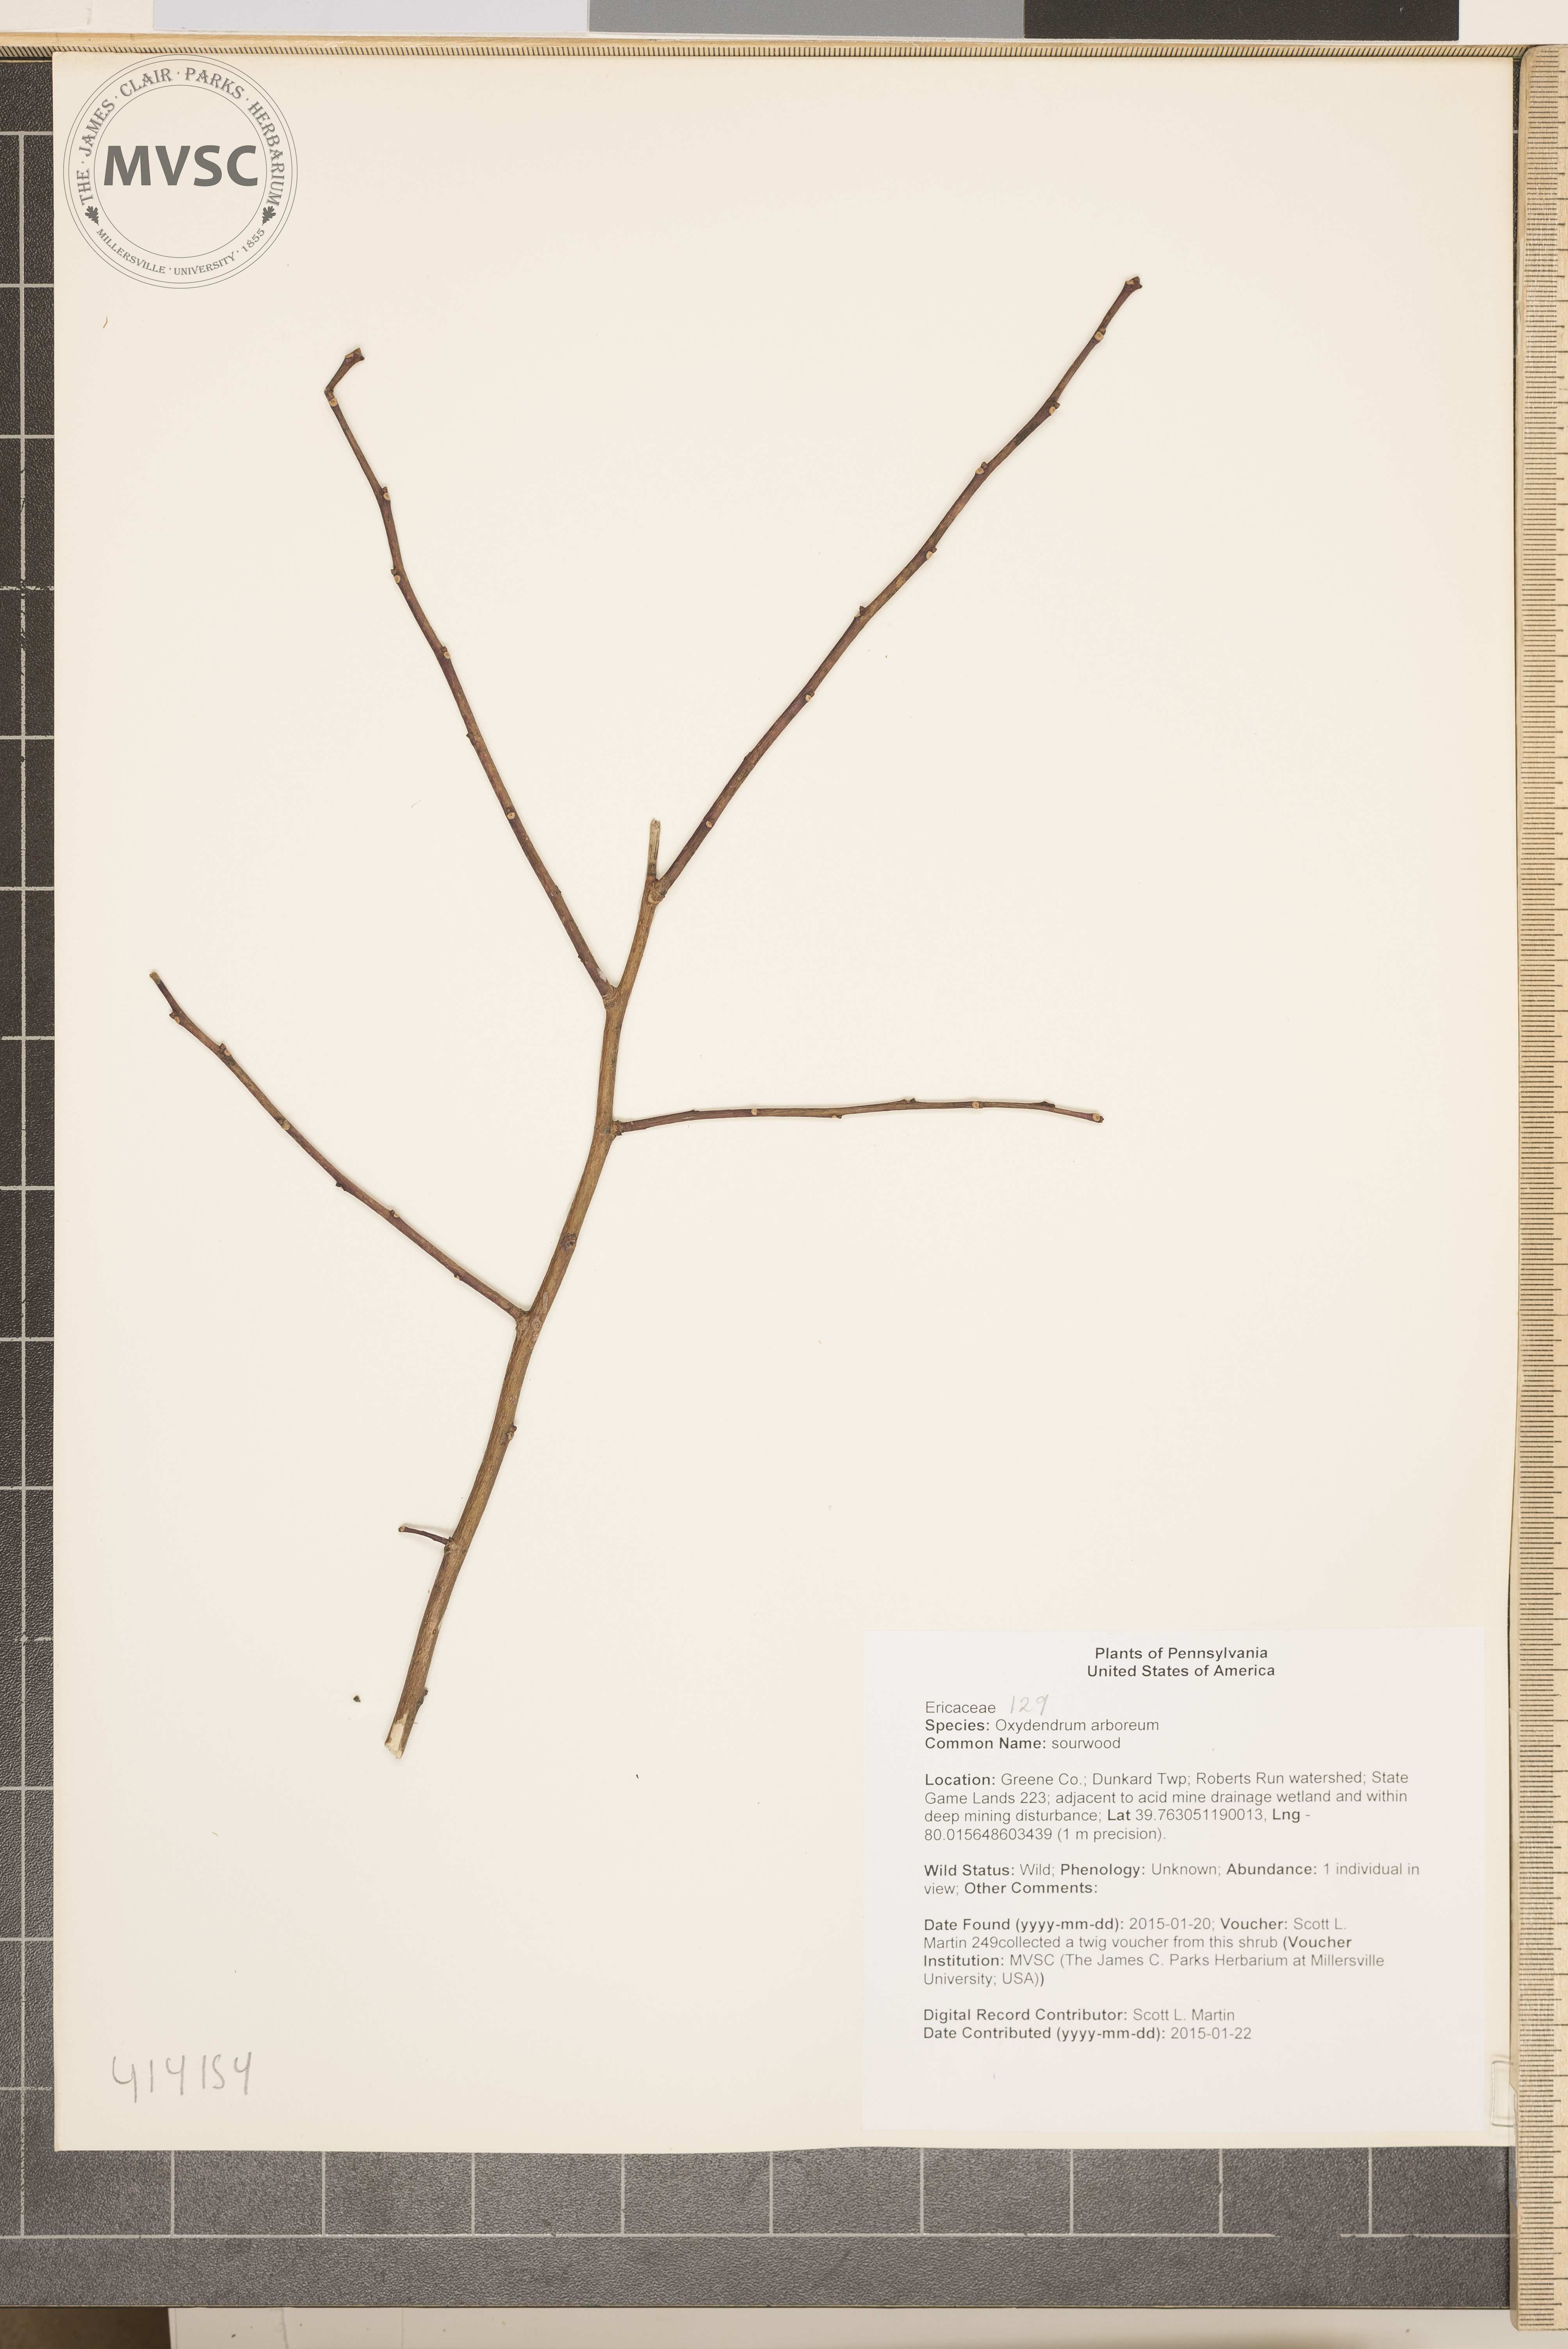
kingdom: Plantae
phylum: Tracheophyta
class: Magnoliopsida
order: Ericales
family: Ericaceae
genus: Oxydendrum
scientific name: Oxydendrum arboreum
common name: sourwood
